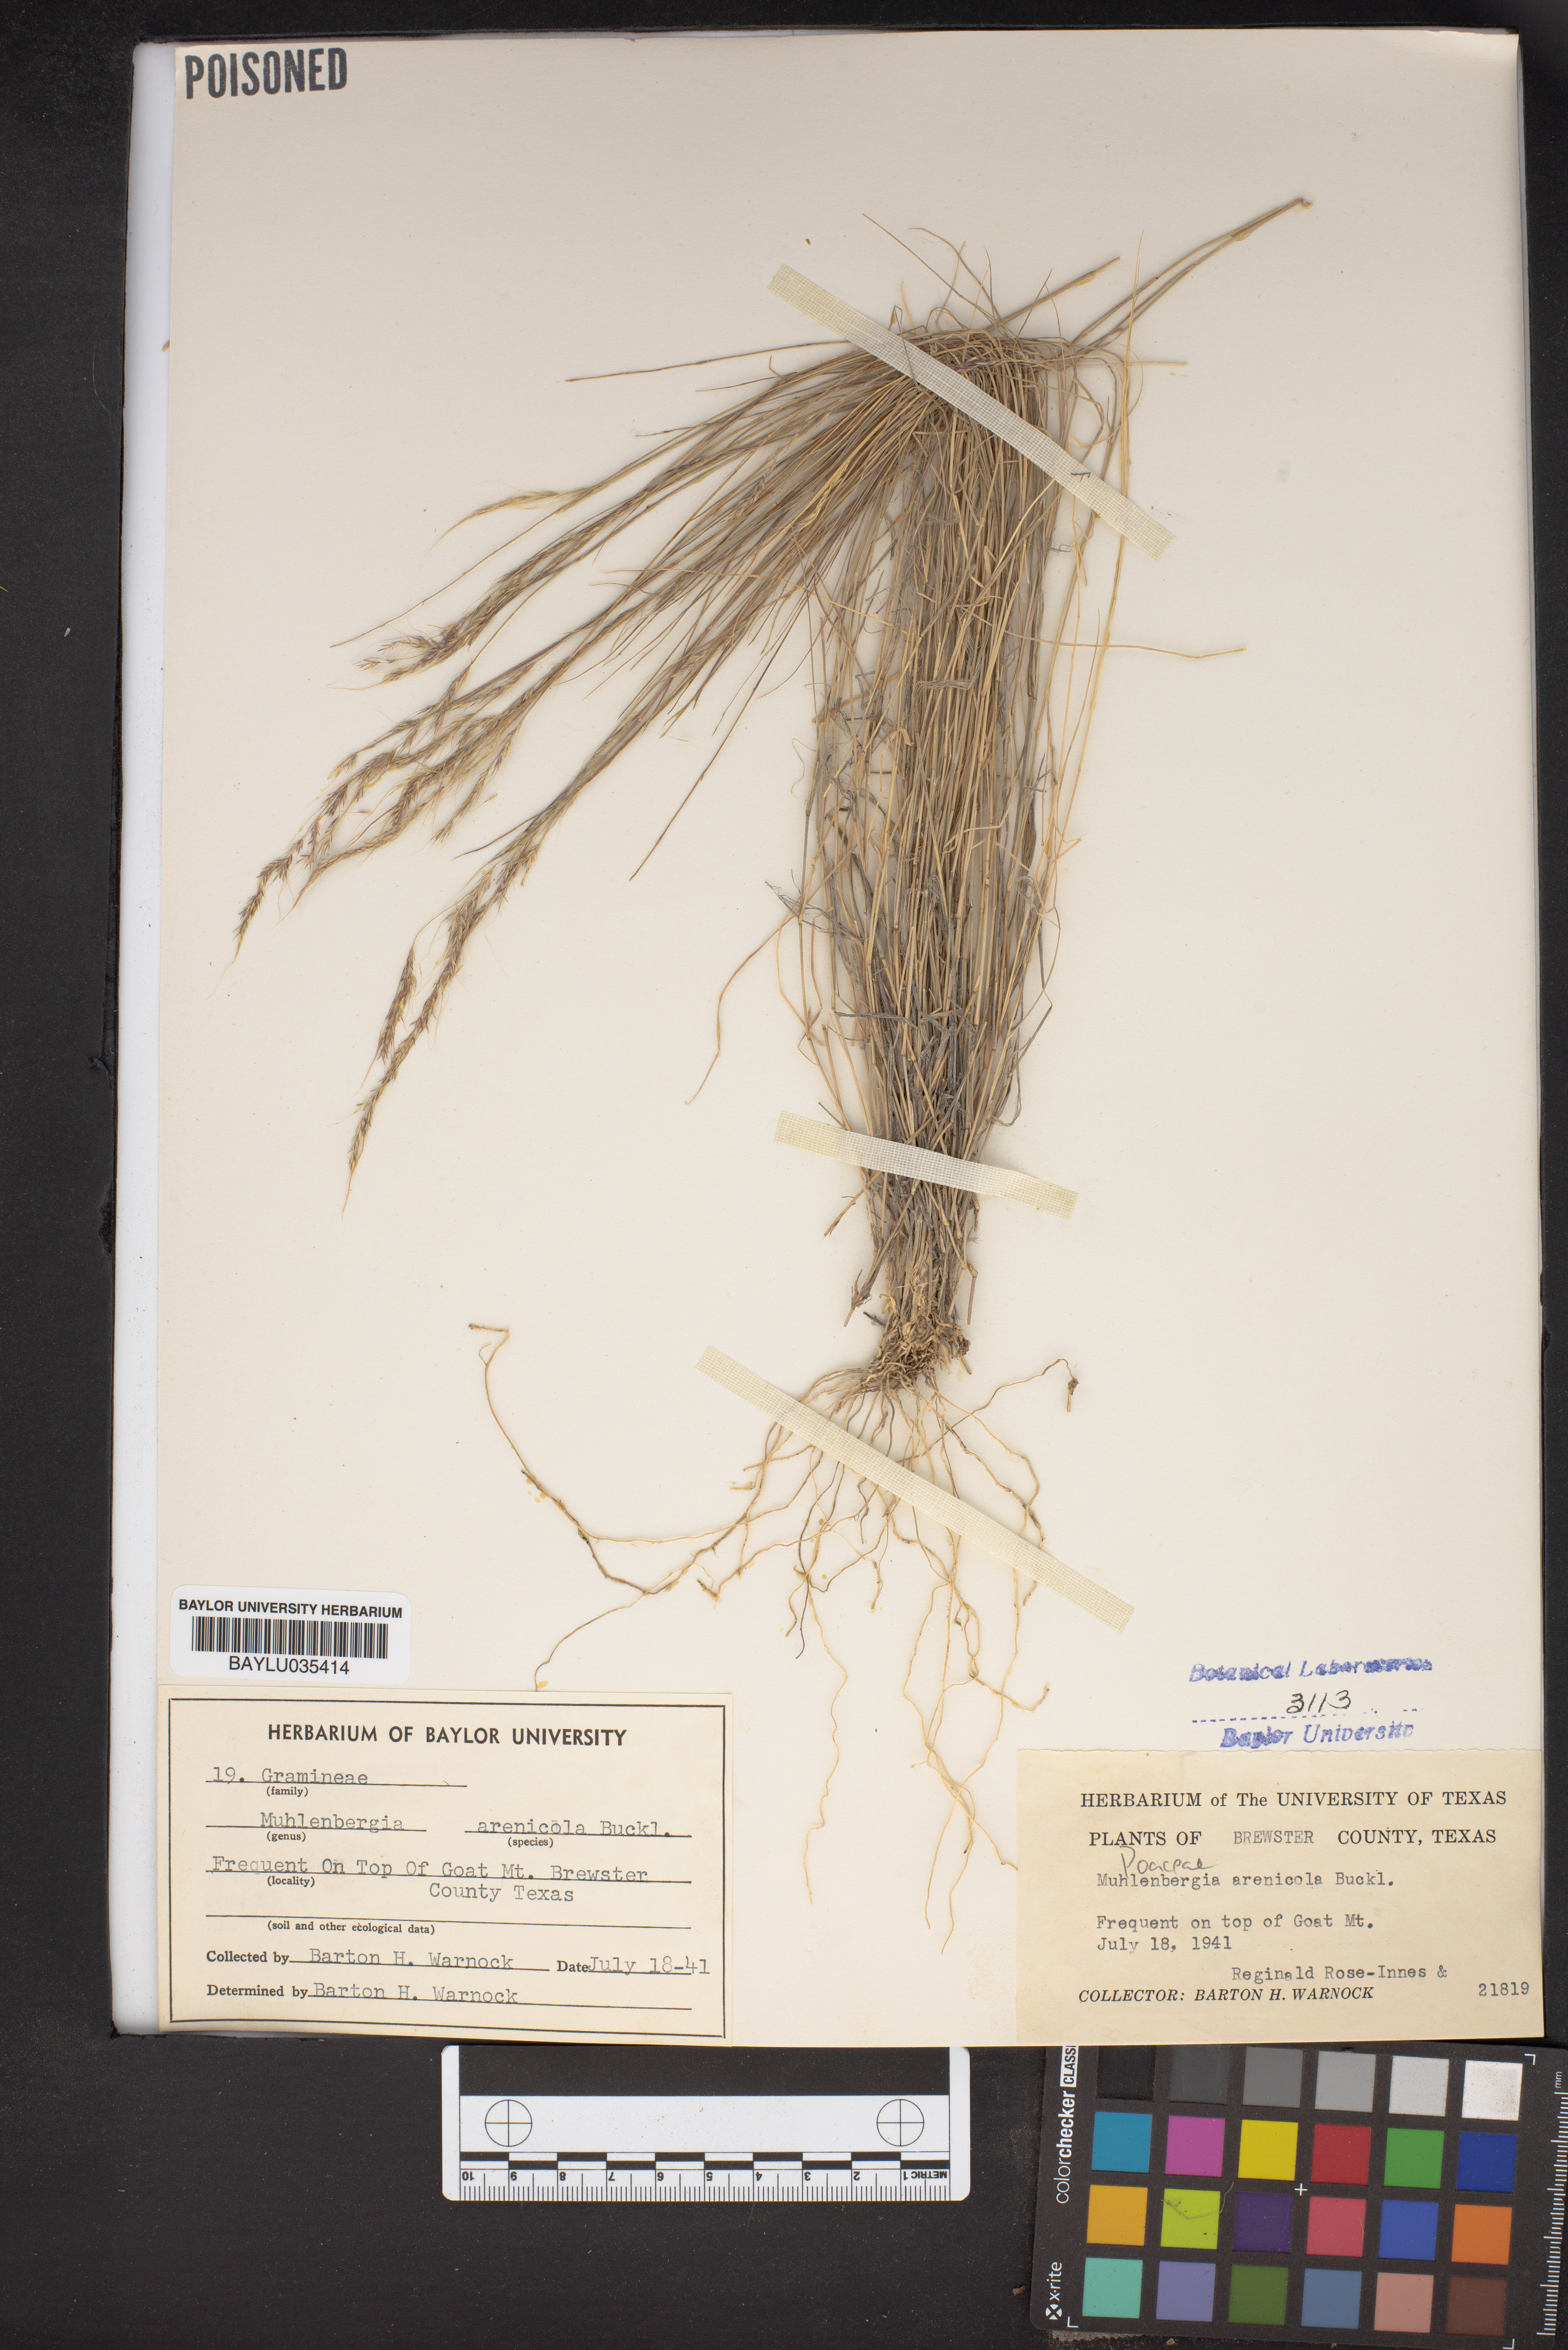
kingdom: Plantae
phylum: Tracheophyta
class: Liliopsida
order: Poales
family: Poaceae
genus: Muhlenbergia
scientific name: Muhlenbergia arenicola
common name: Sand muhly
